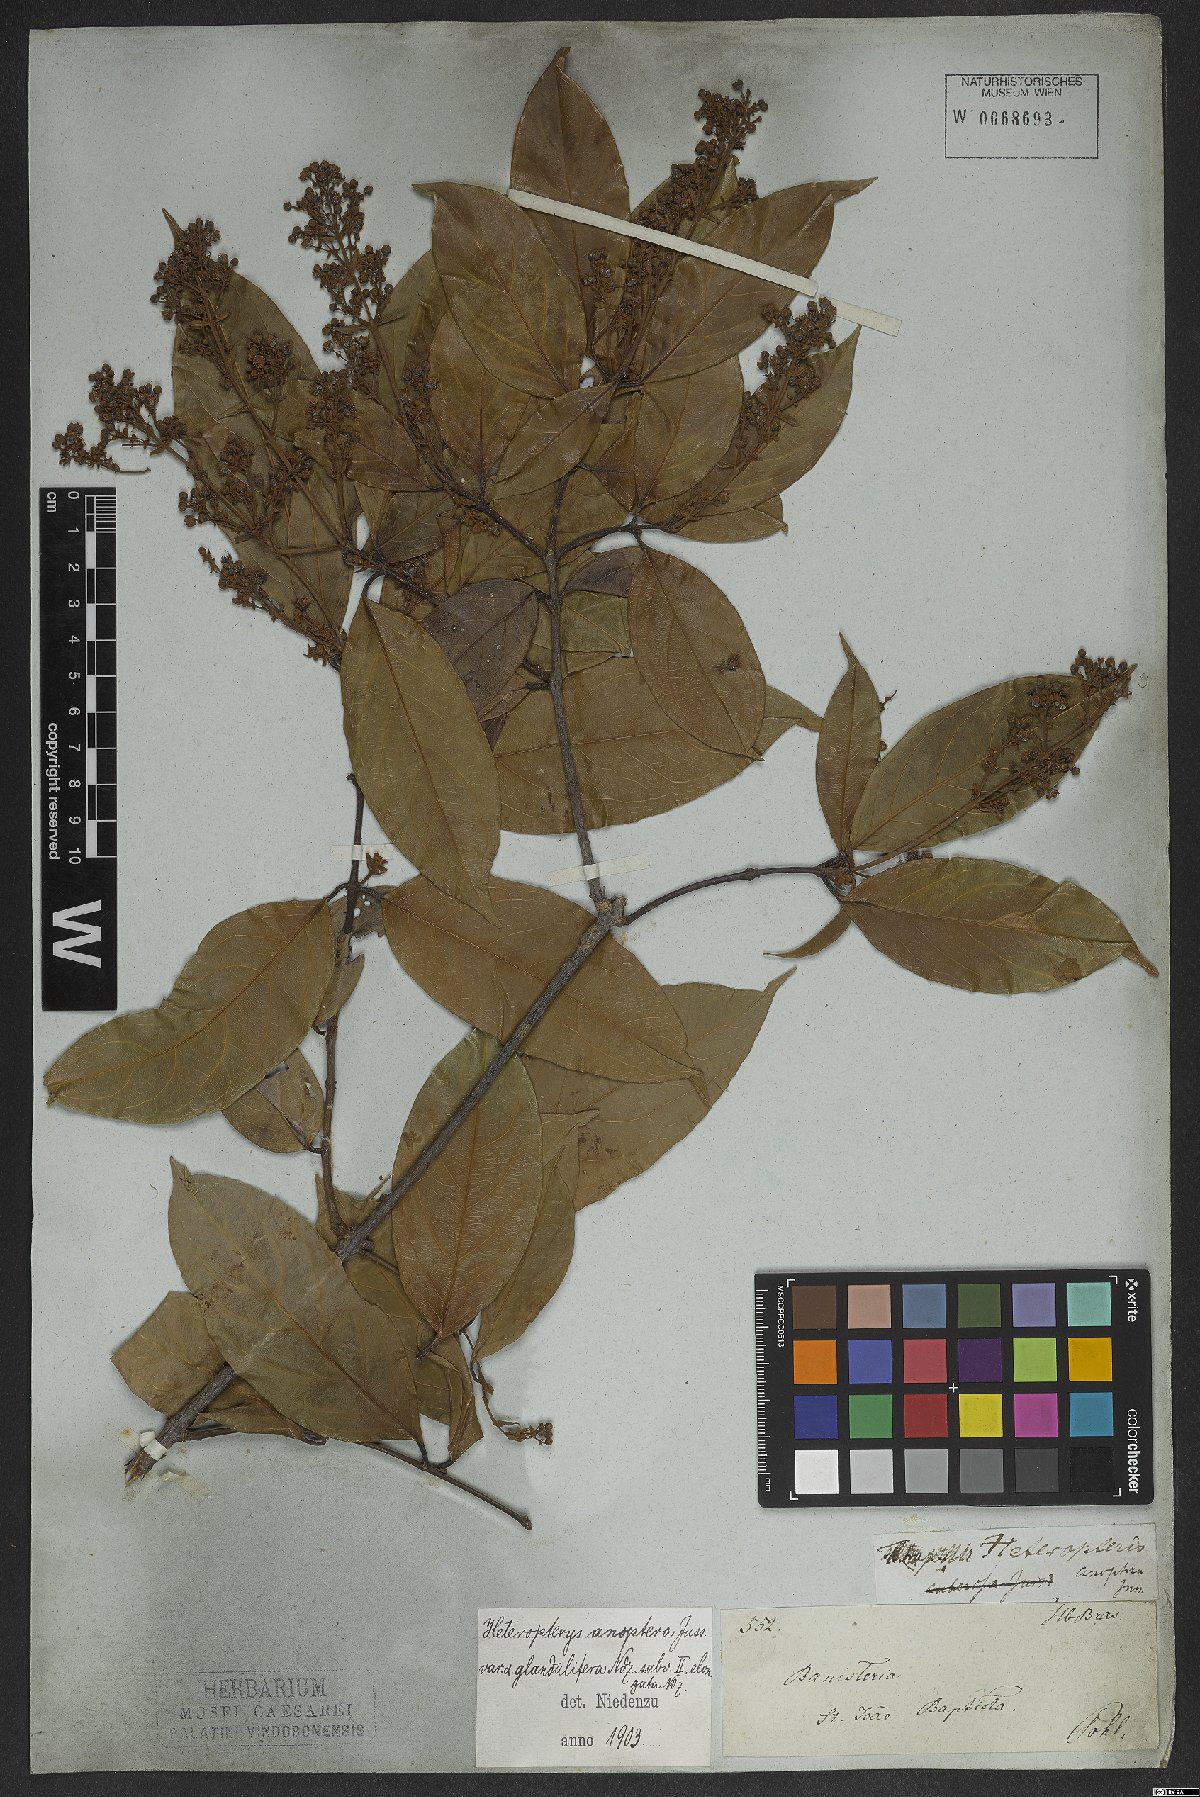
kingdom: Plantae
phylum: Tracheophyta
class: Magnoliopsida
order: Malpighiales
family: Malpighiaceae
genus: Heteropterys
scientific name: Heteropterys anoptera
